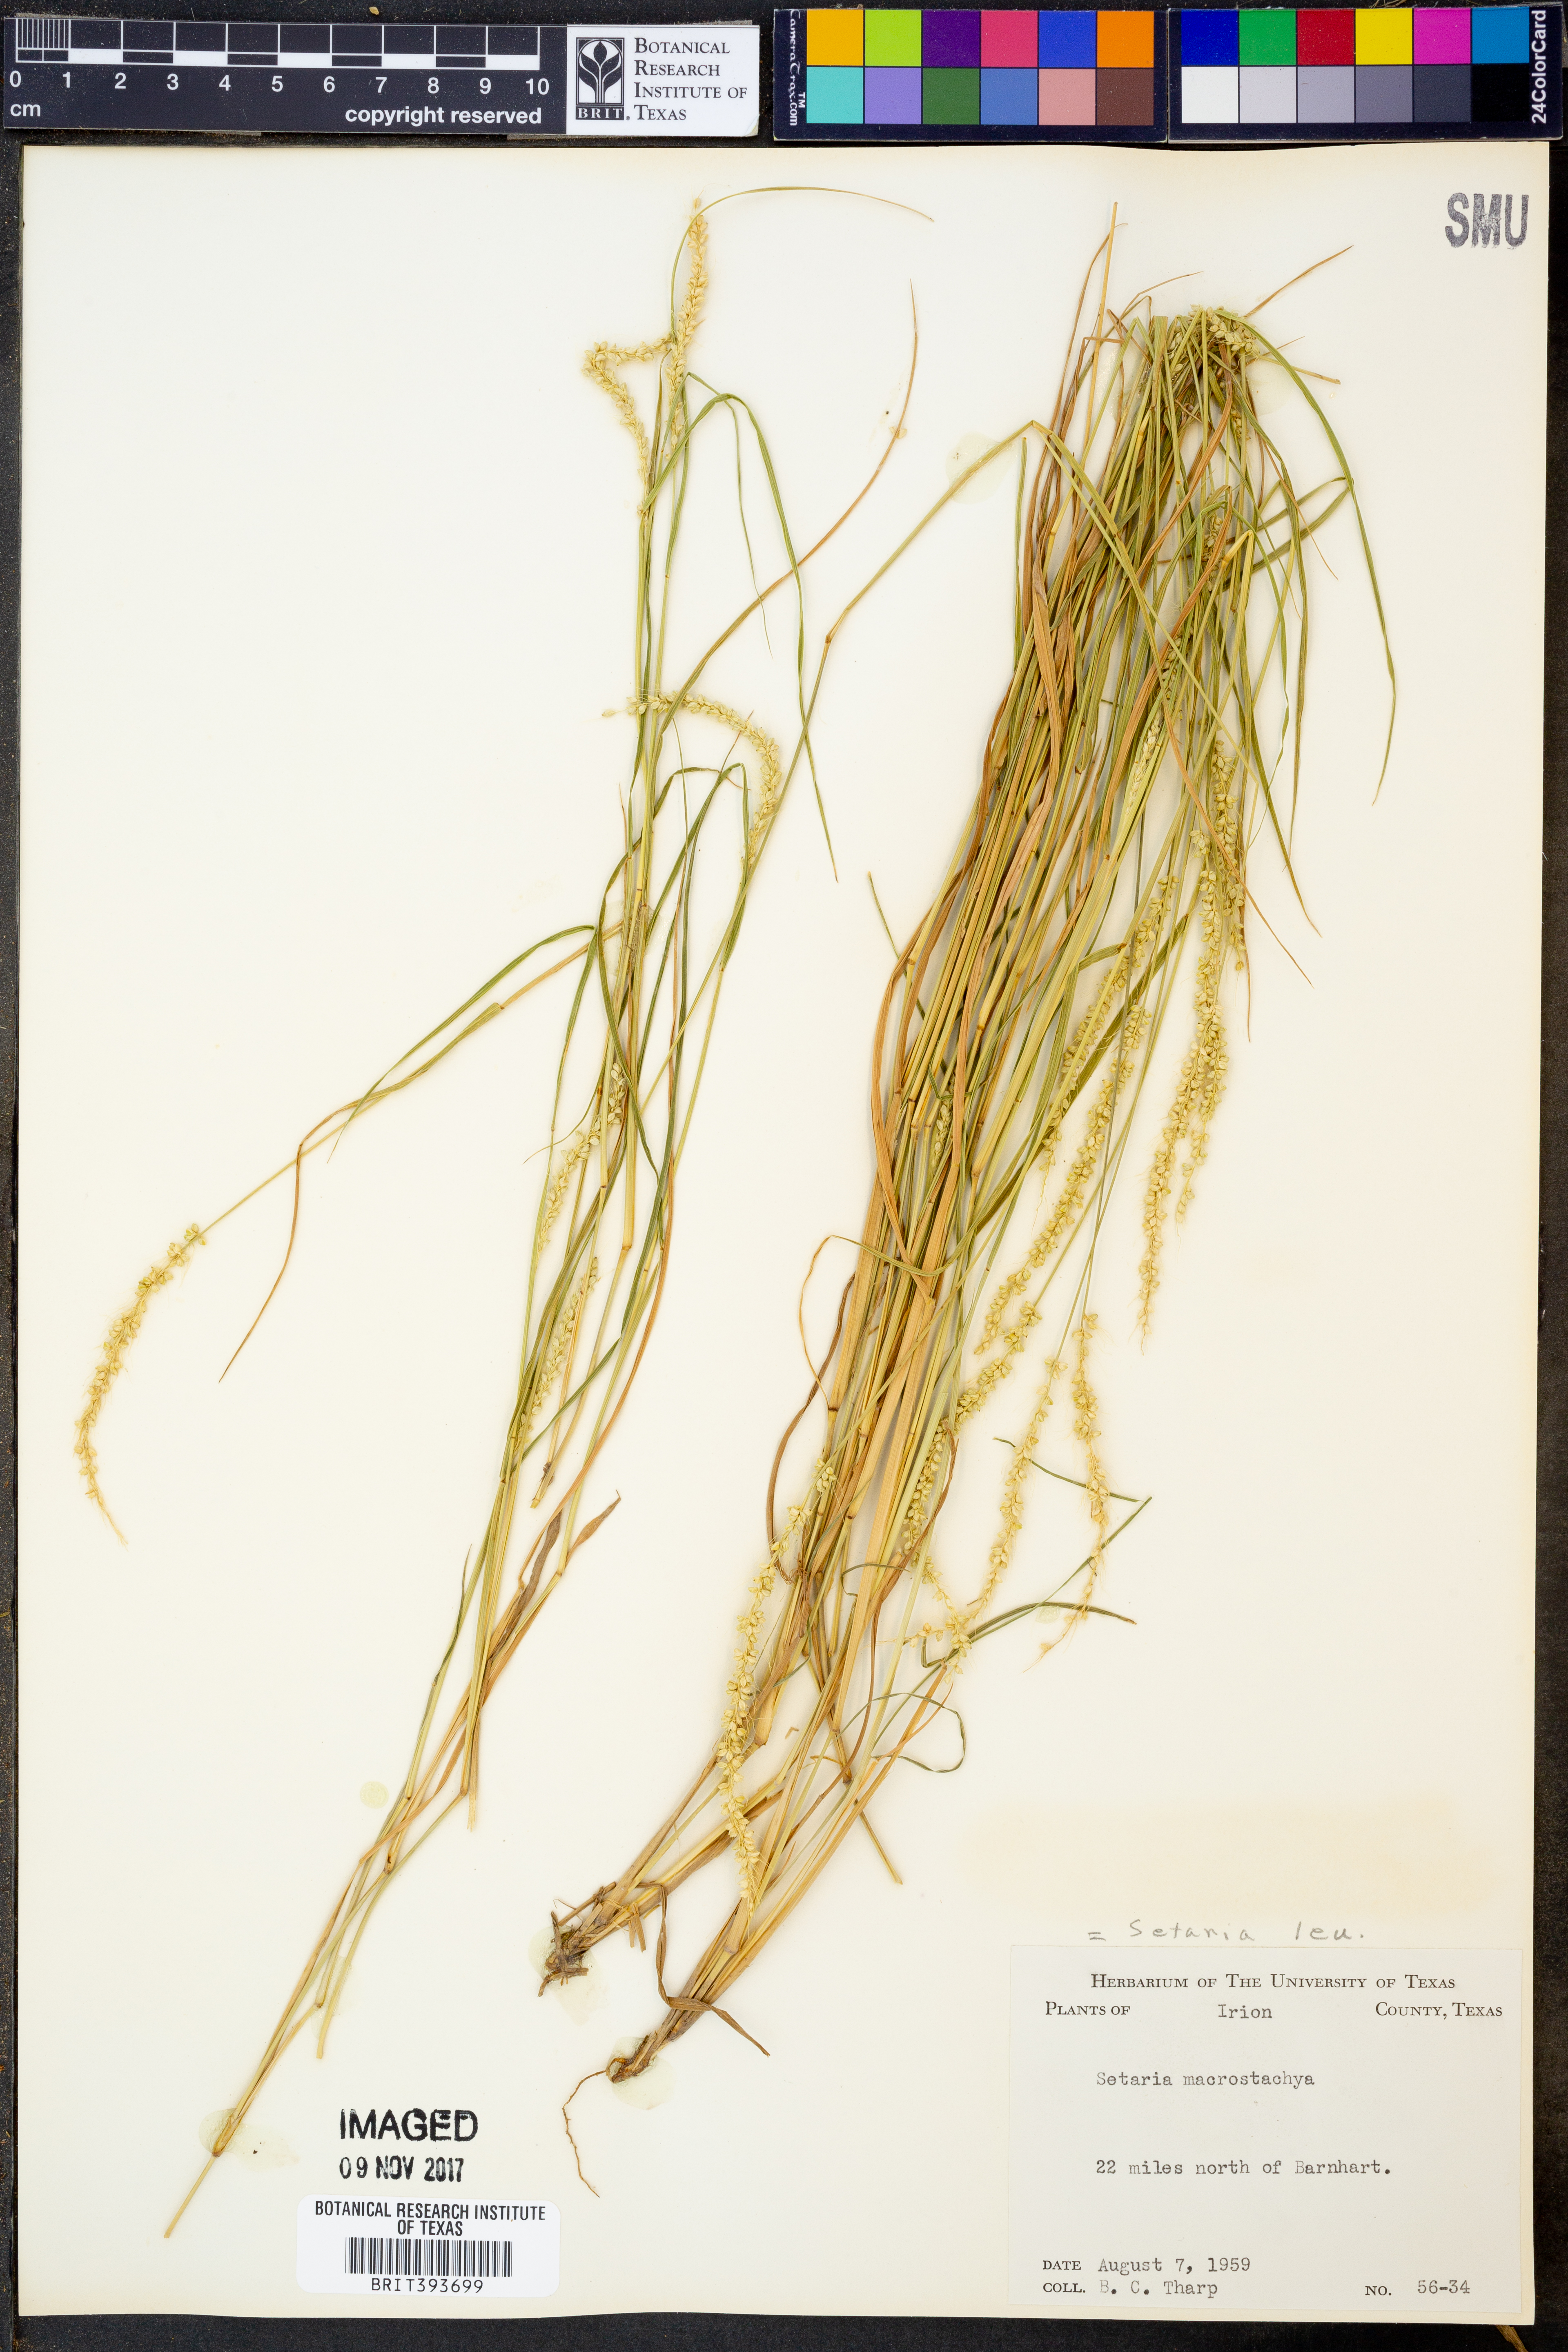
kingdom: Plantae
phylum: Tracheophyta
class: Liliopsida
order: Poales
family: Poaceae
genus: Setaria
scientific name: Setaria macrostachya
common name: Plains bristle grass
